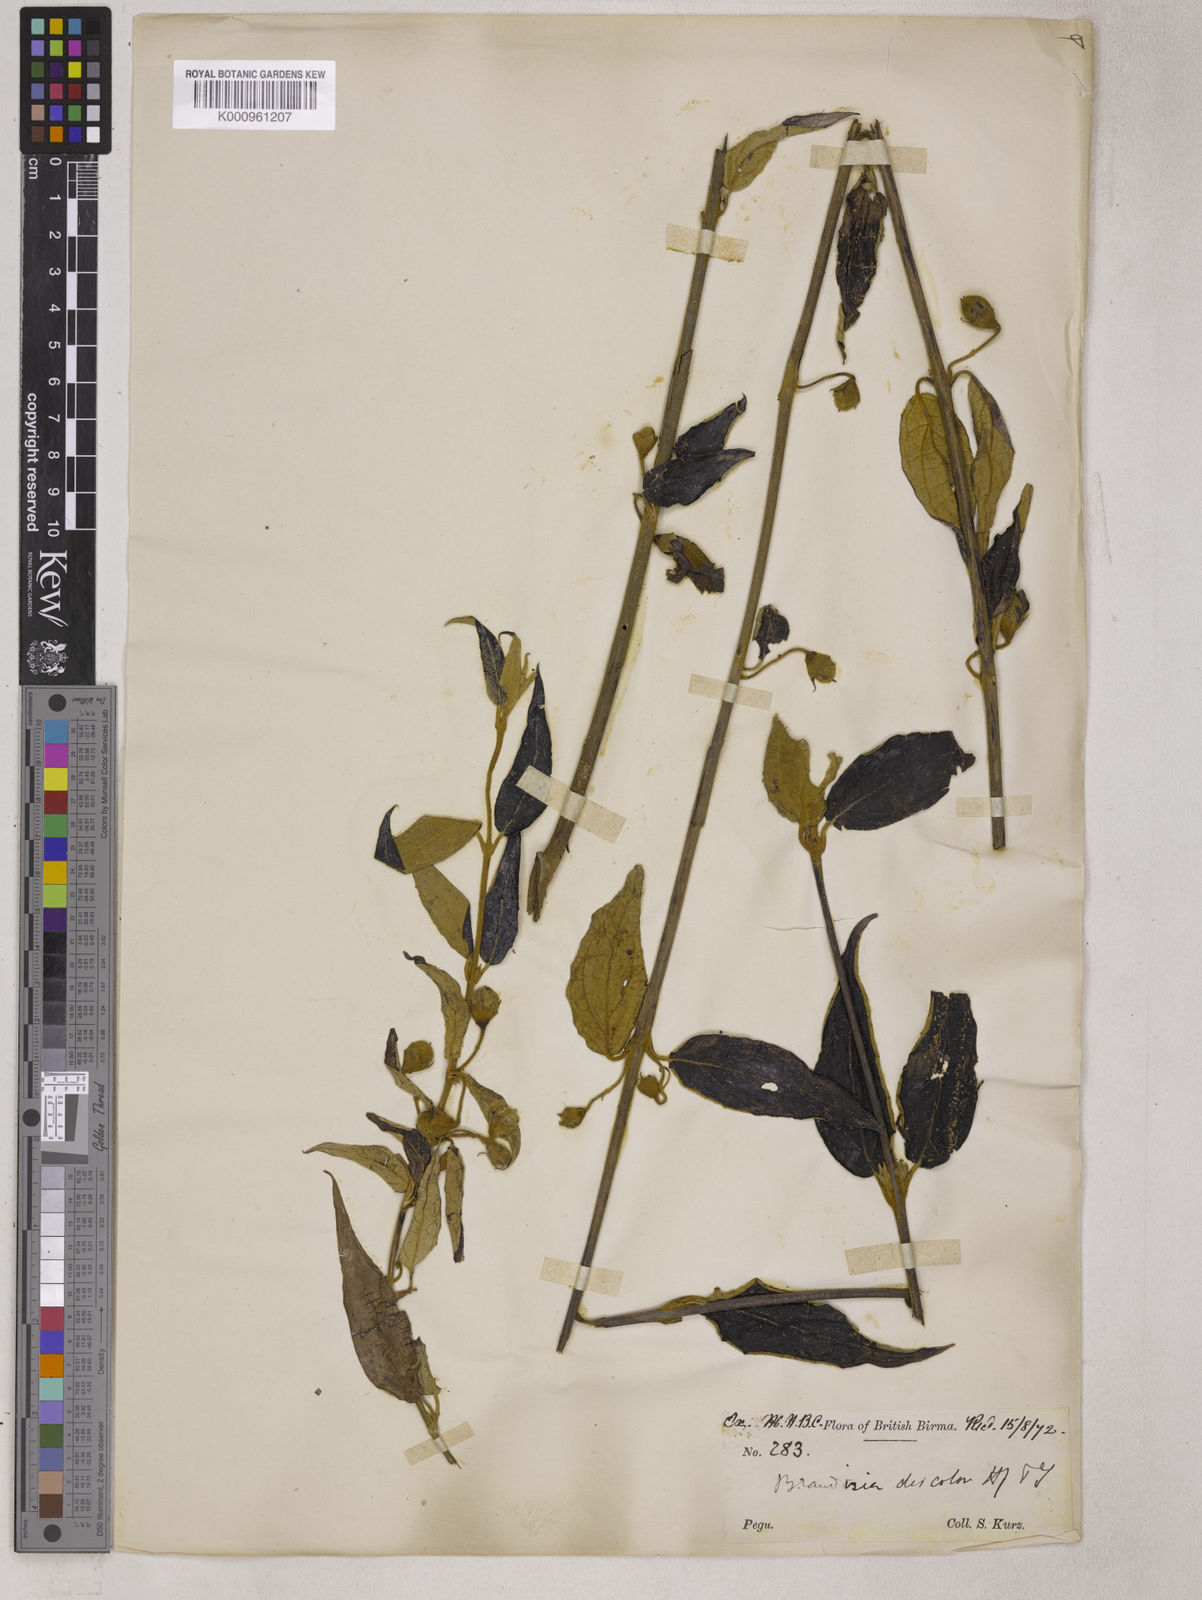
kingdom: Plantae
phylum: Tracheophyta
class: Magnoliopsida
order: Lamiales
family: Orobanchaceae
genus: Brandisia
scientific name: Brandisia discolor
